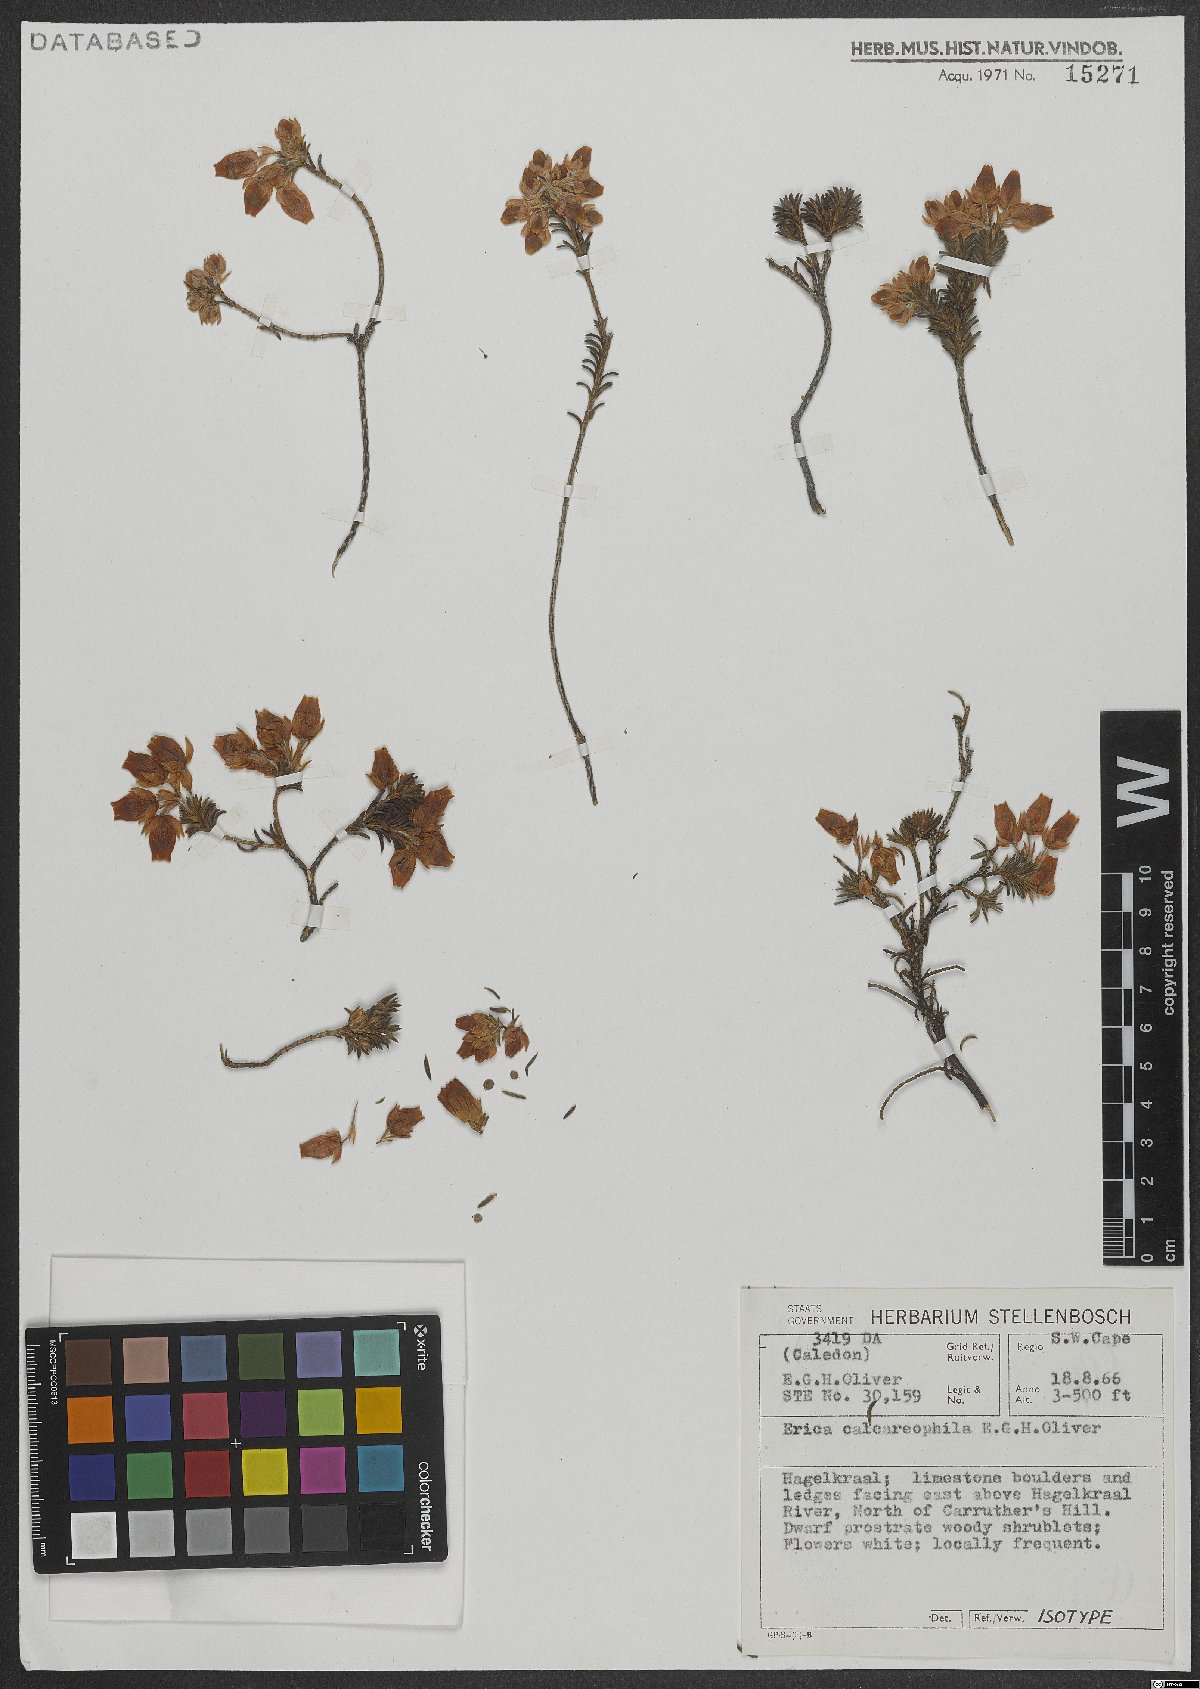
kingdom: Plantae
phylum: Tracheophyta
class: Magnoliopsida
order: Ericales
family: Ericaceae
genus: Erica
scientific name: Erica calcareophila
